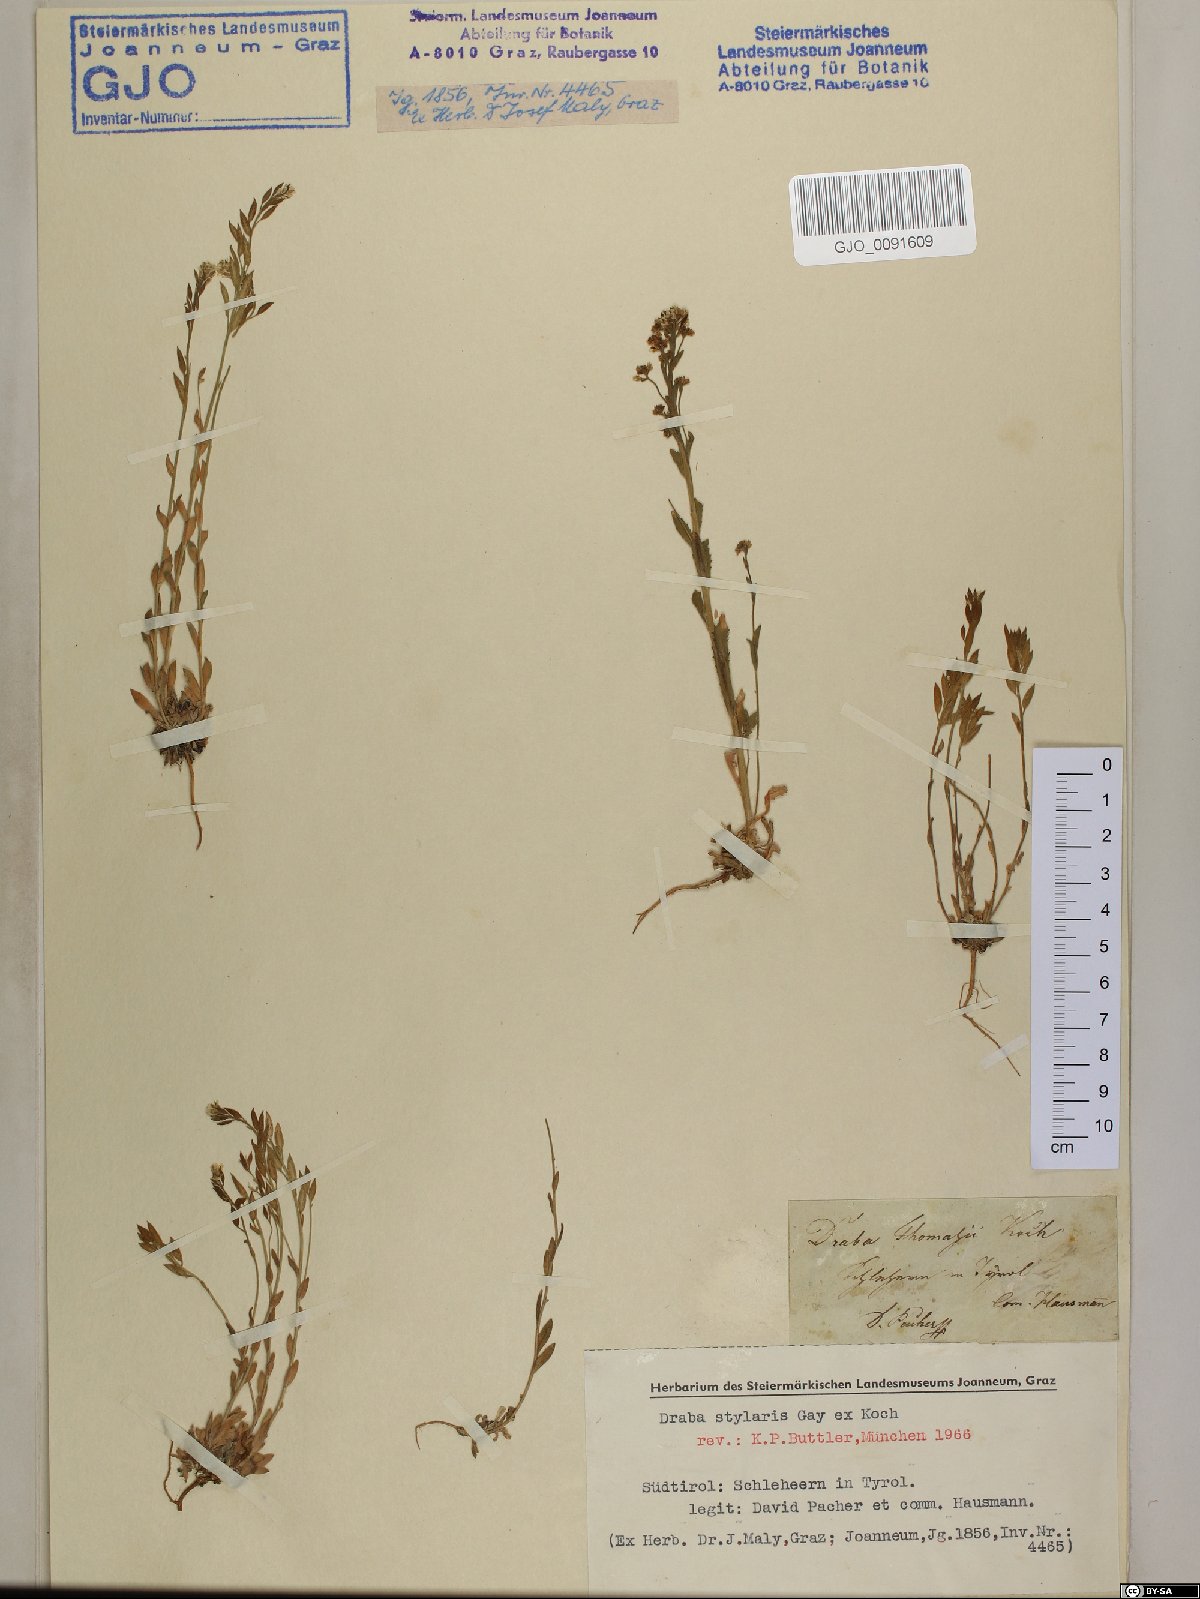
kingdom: Plantae
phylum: Tracheophyta
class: Magnoliopsida
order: Brassicales
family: Brassicaceae
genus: Draba
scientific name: Draba thomasii
